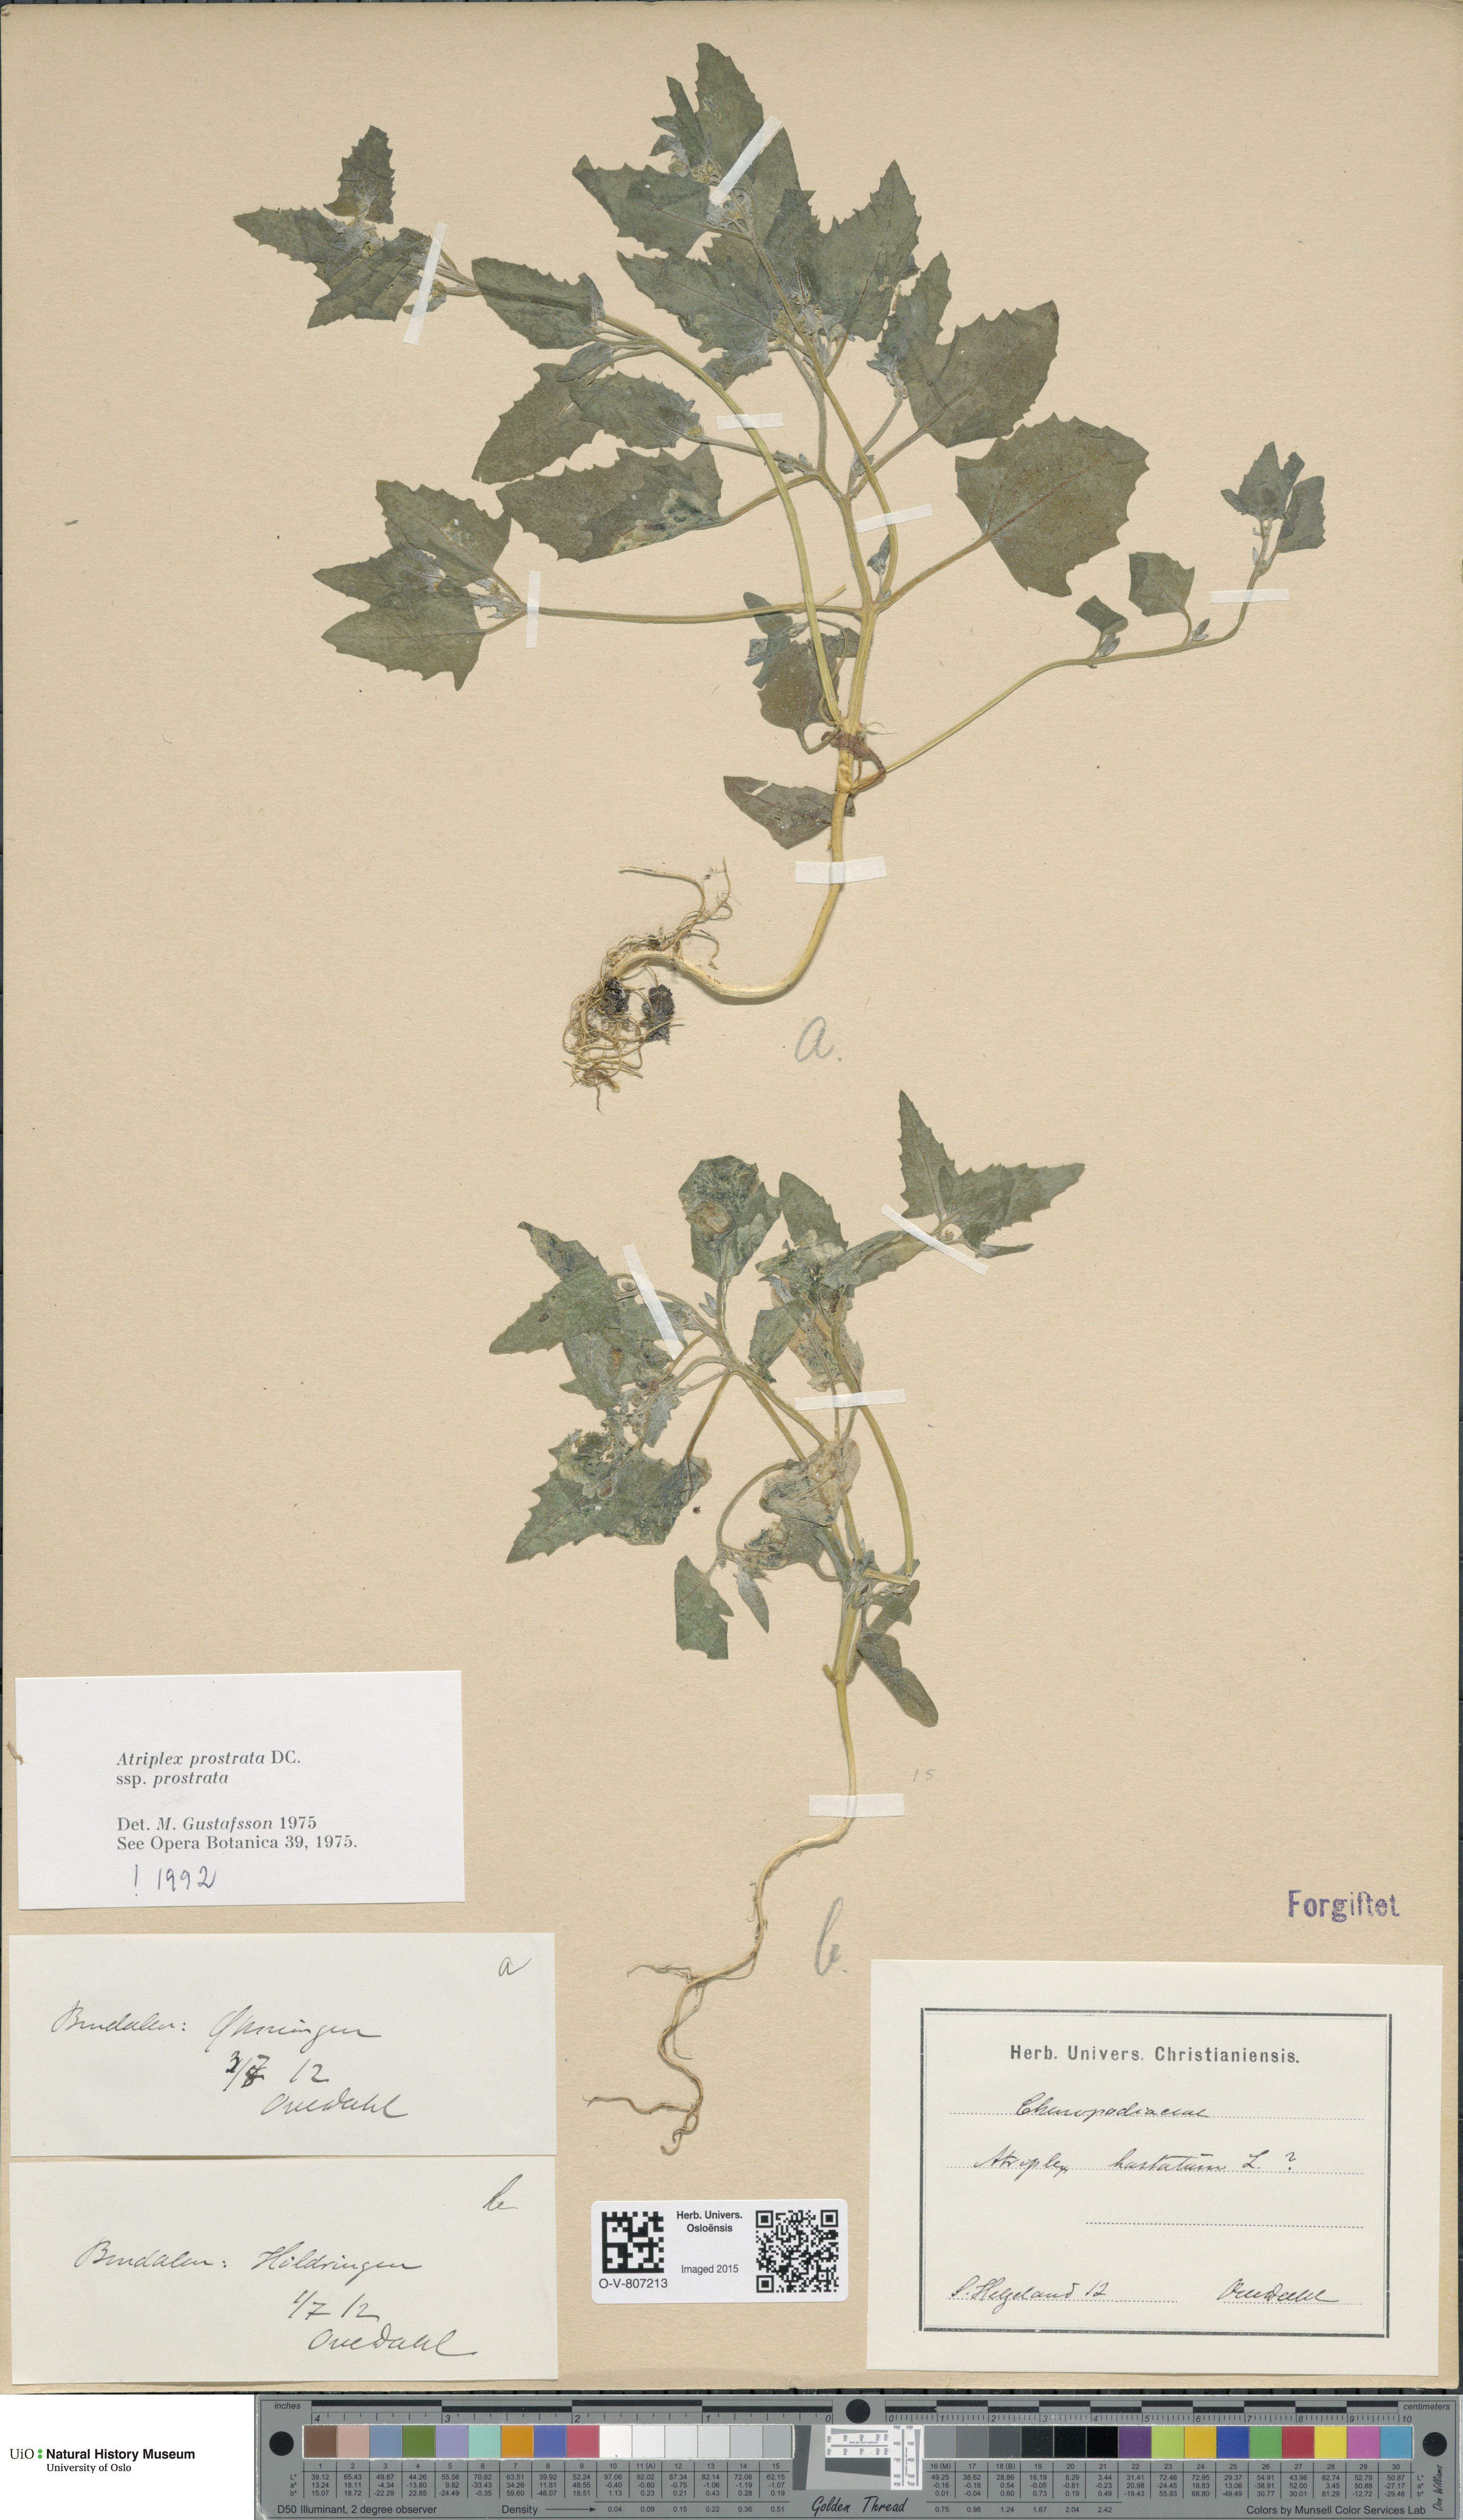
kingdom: Plantae
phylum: Tracheophyta
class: Magnoliopsida
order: Caryophyllales
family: Amaranthaceae
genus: Atriplex
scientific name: Atriplex prostrata
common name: Spear-leaved orache
